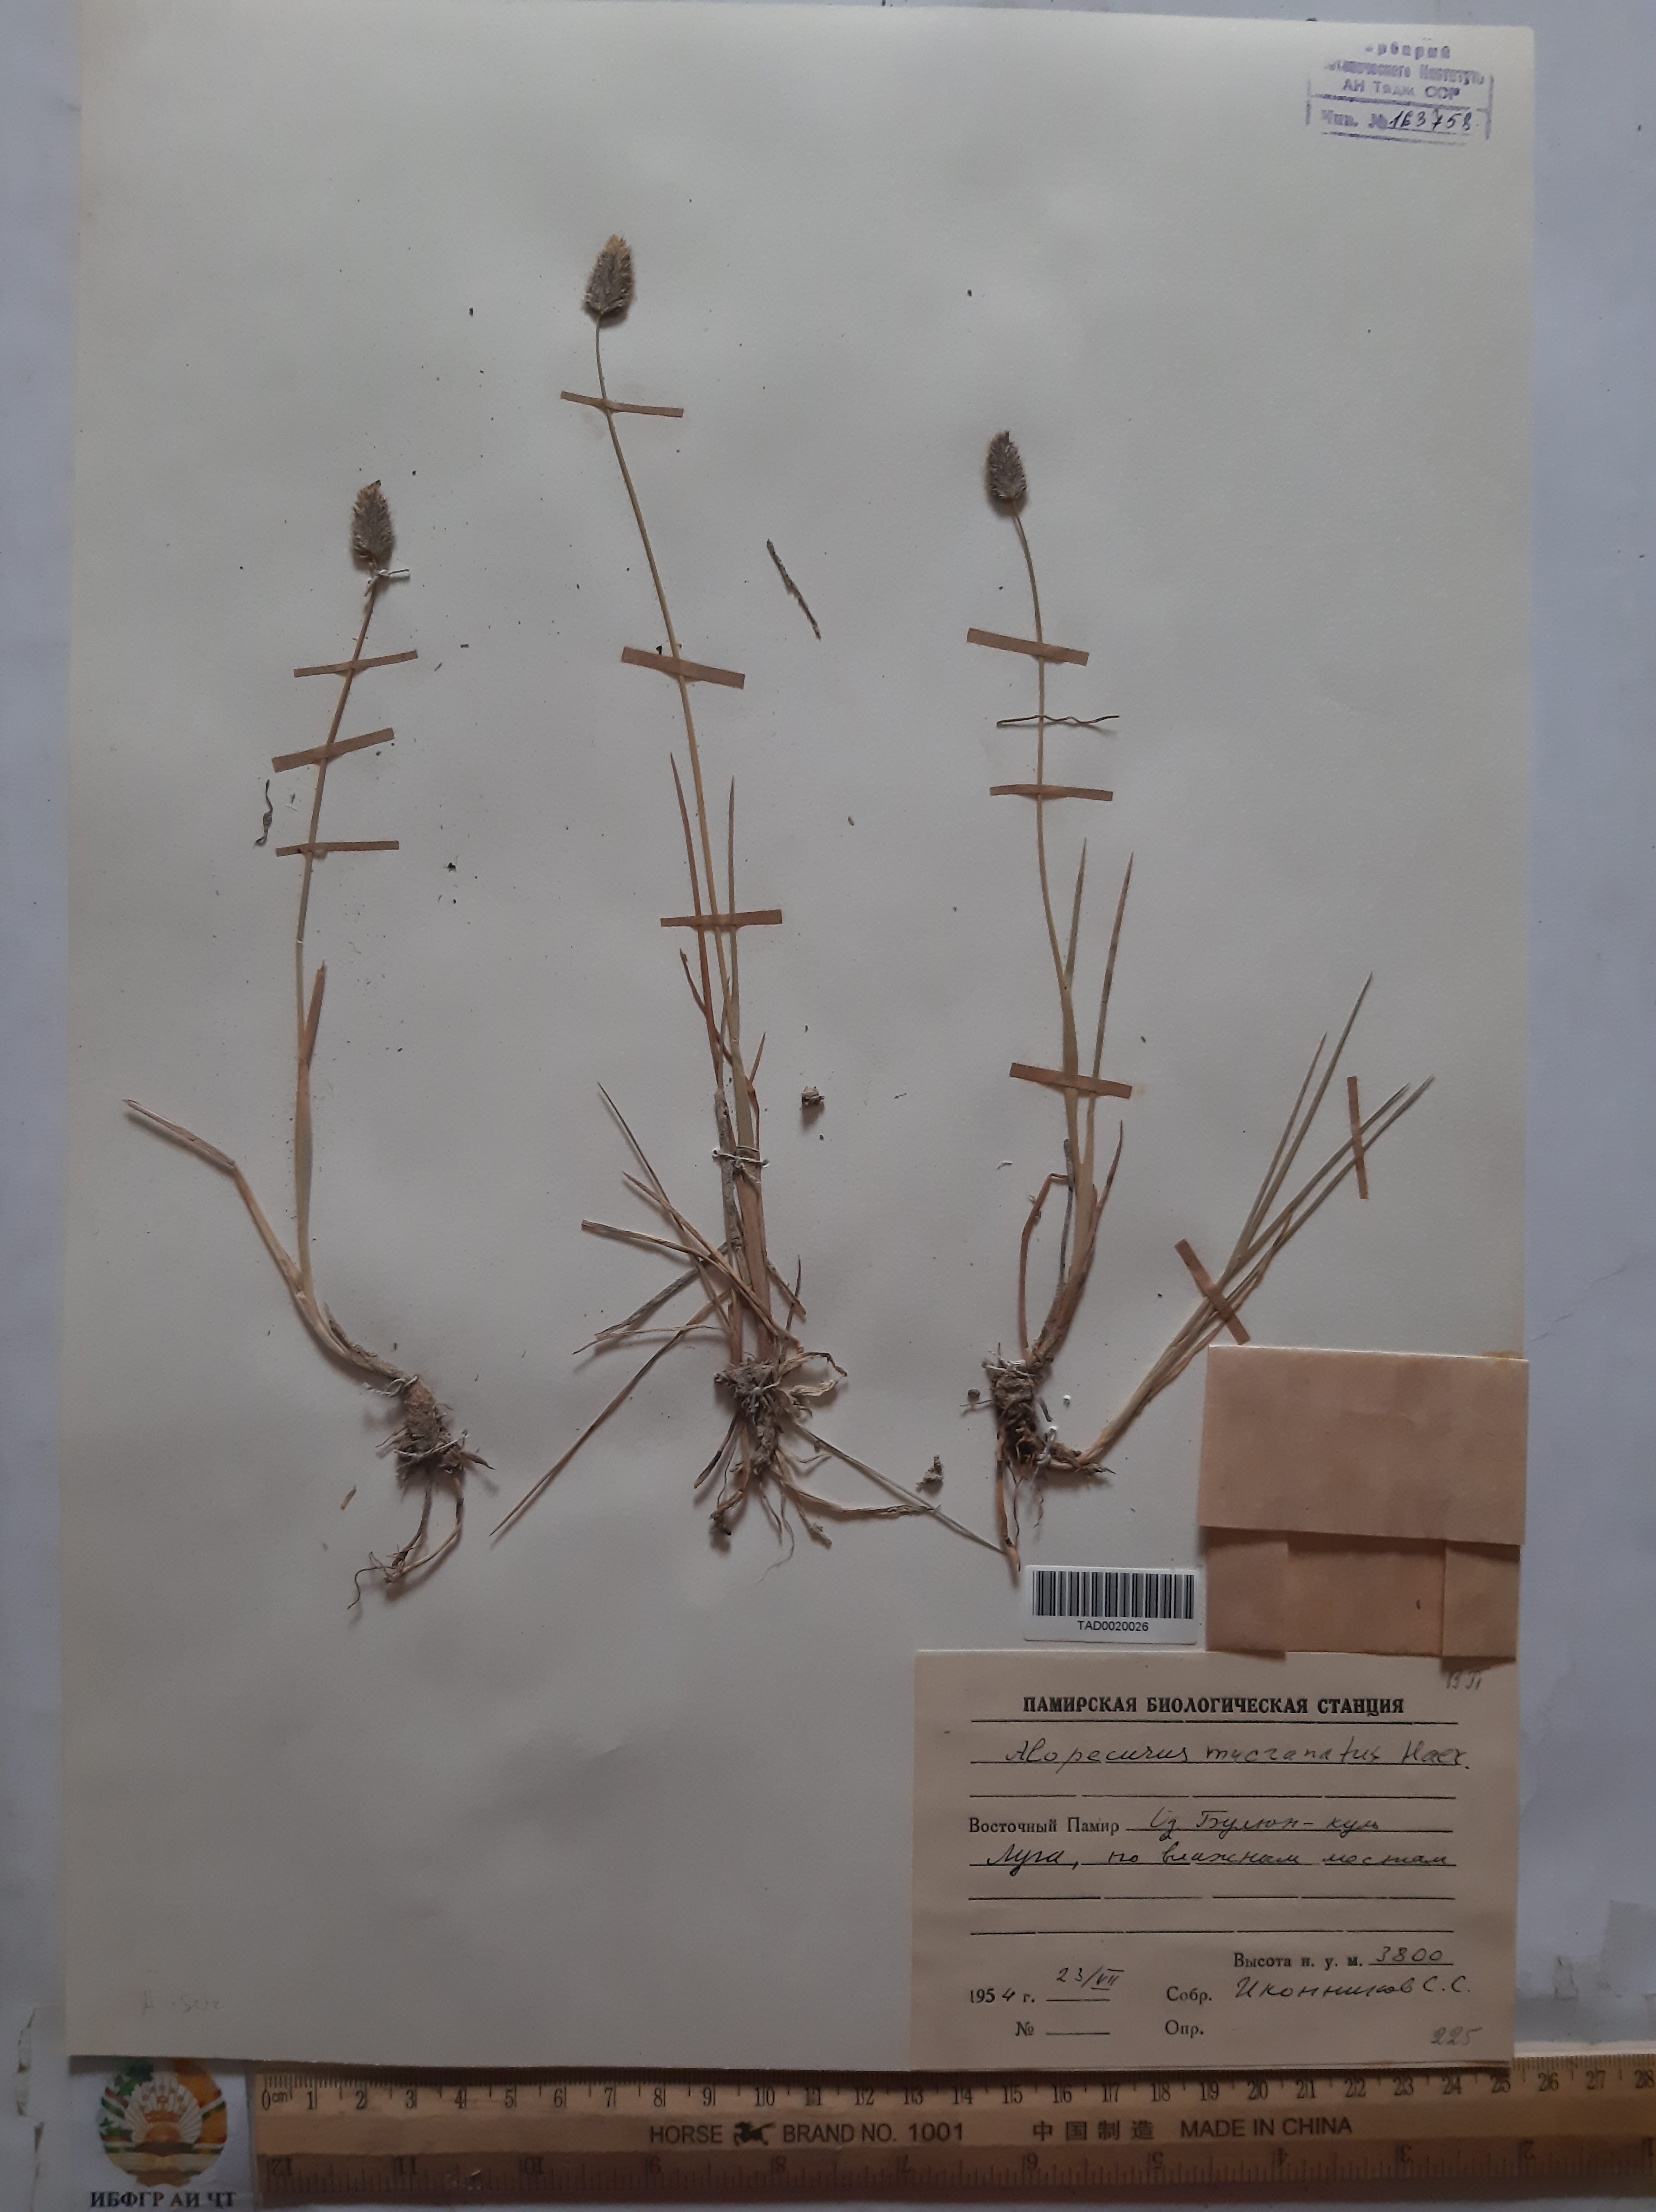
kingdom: Plantae
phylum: Tracheophyta
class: Liliopsida
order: Poales
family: Poaceae
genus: Alopecurus
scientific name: Alopecurus mucronatus
